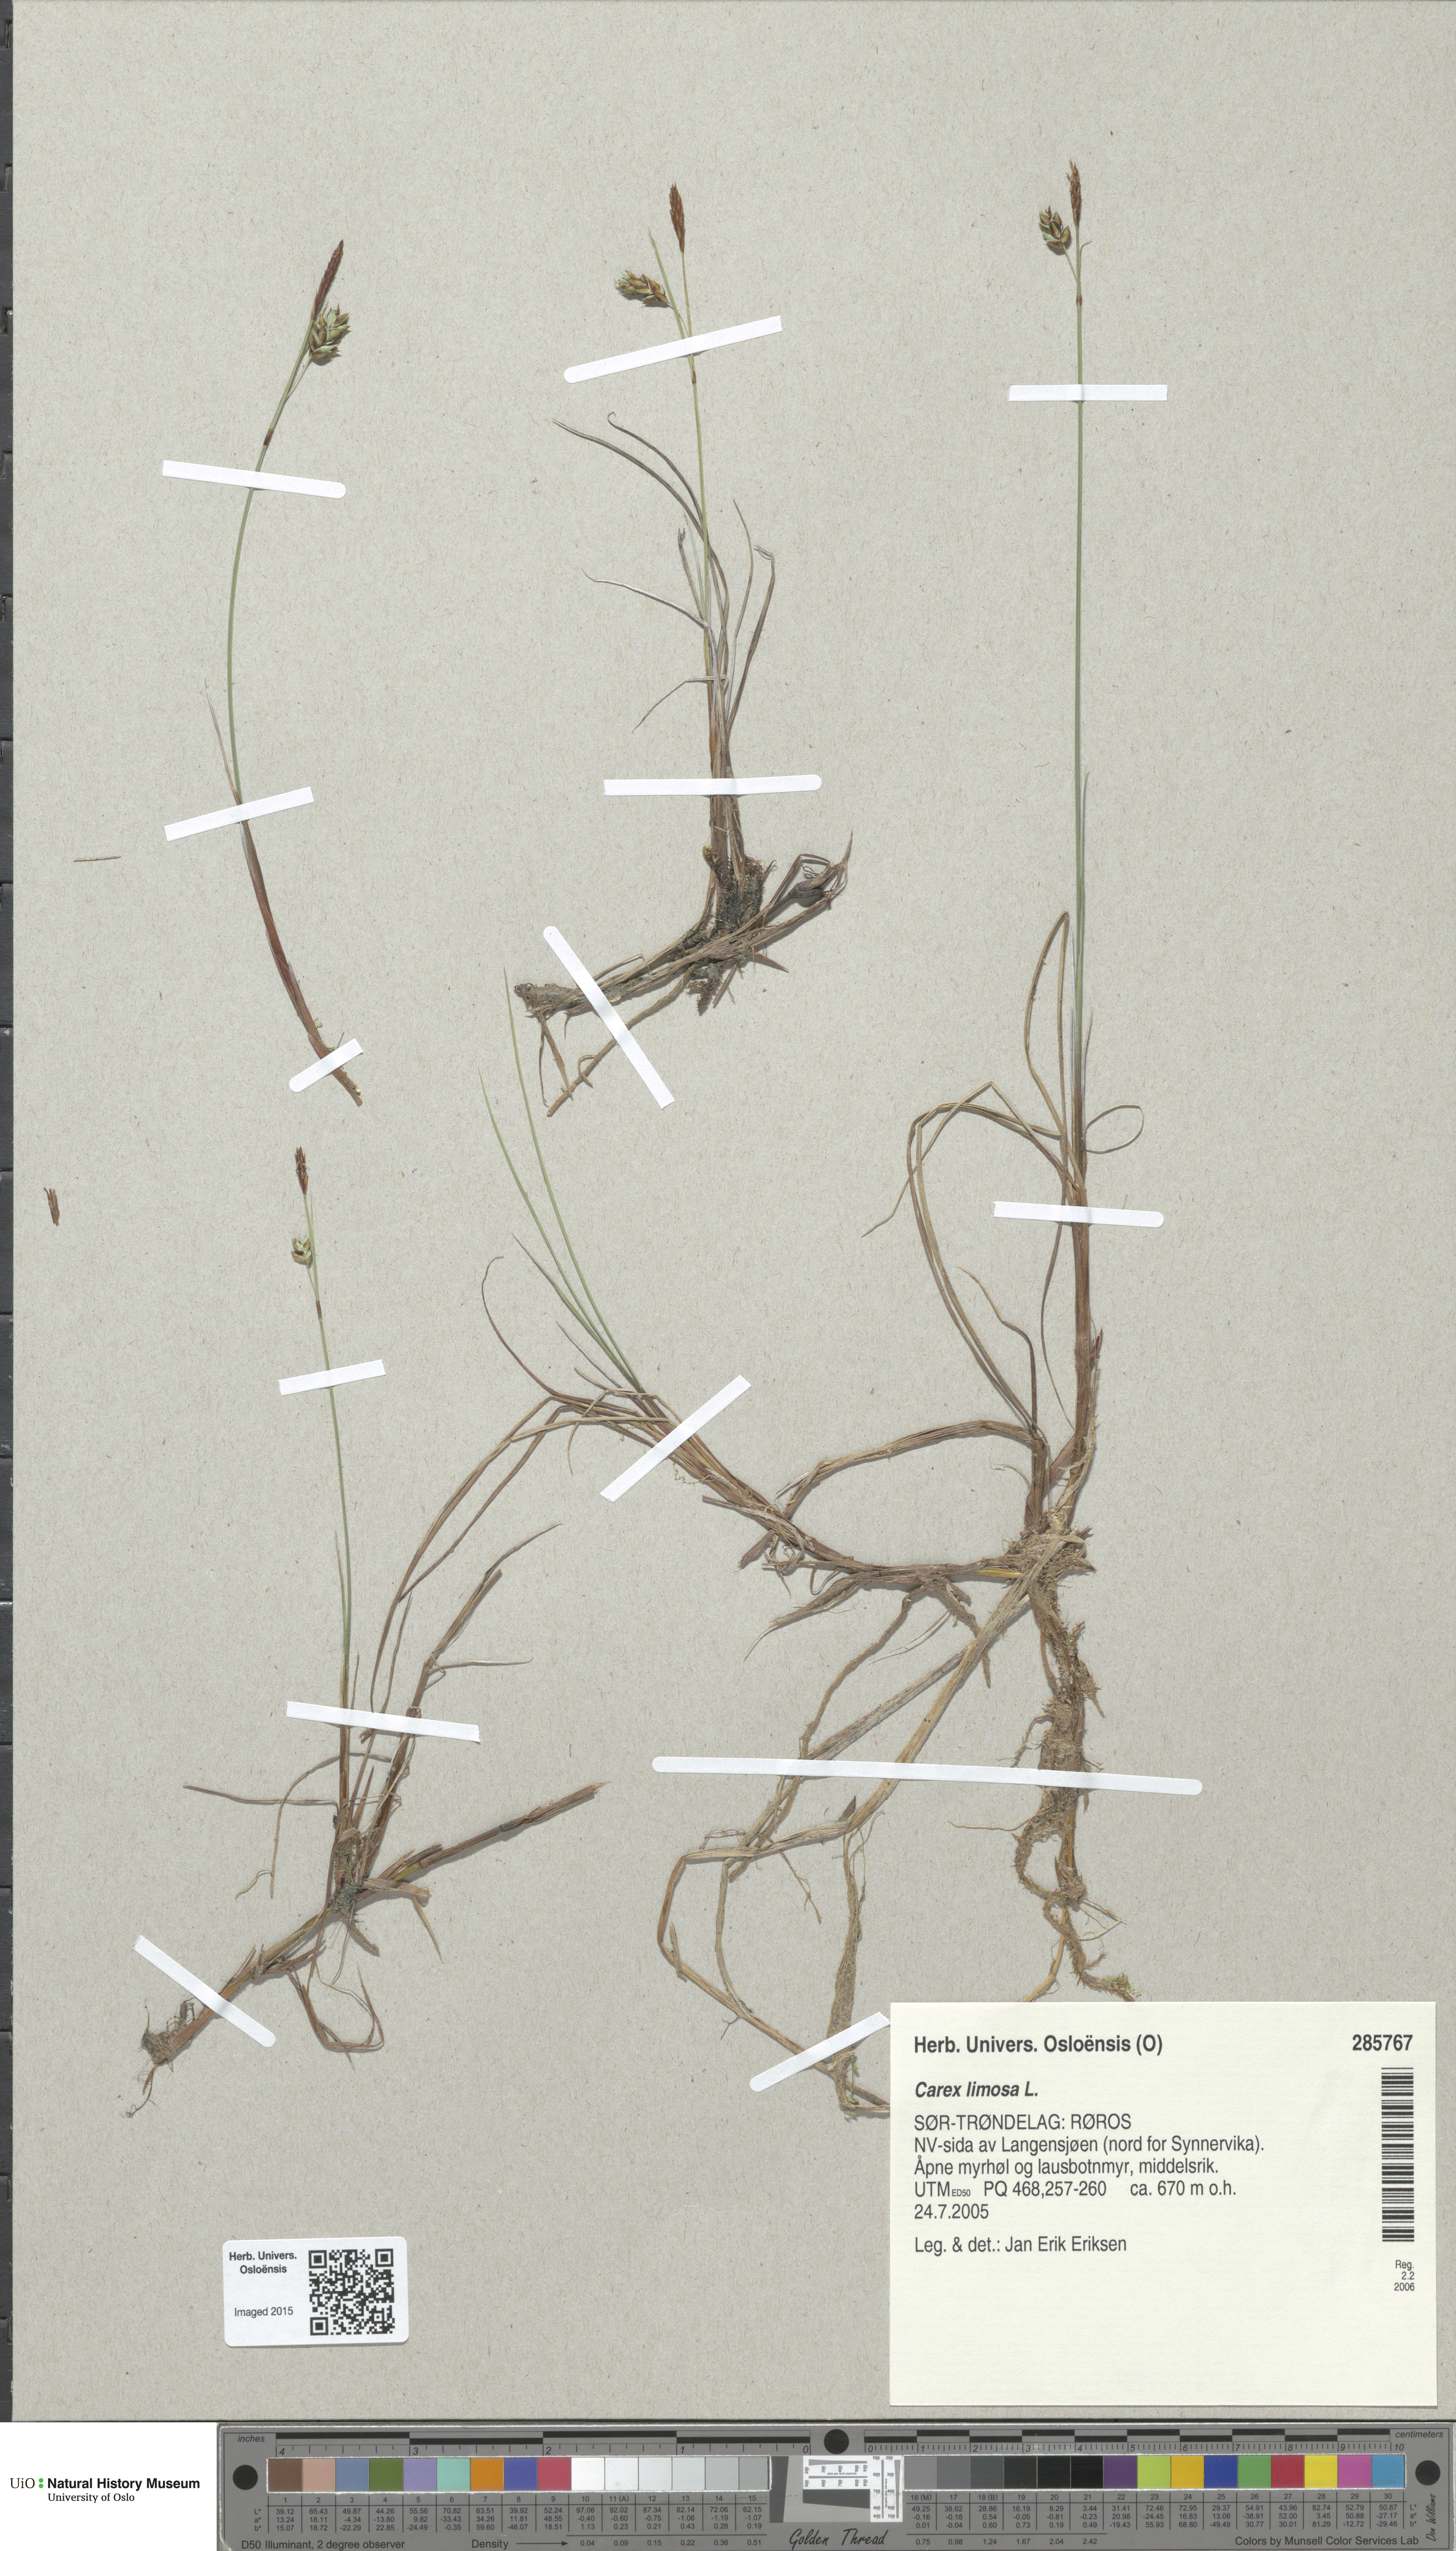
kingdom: Plantae
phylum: Tracheophyta
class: Liliopsida
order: Poales
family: Cyperaceae
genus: Carex
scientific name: Carex limosa
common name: Bog sedge
